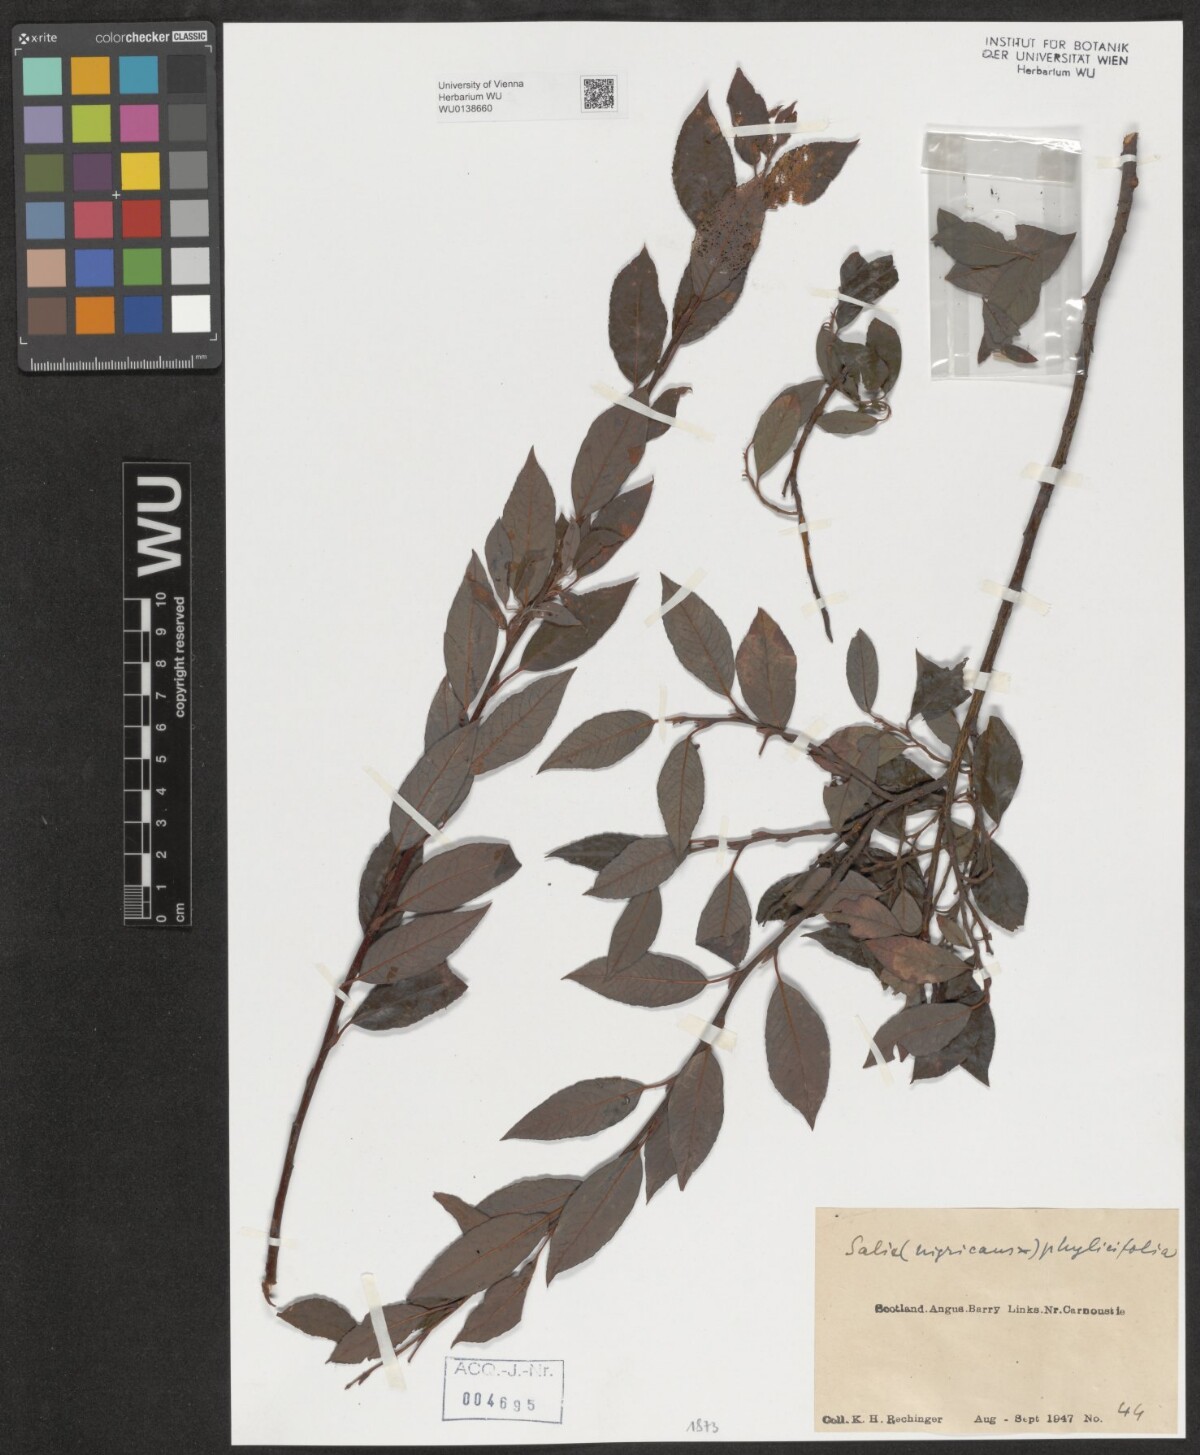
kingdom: Plantae
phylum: Tracheophyta
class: Magnoliopsida
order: Malpighiales
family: Salicaceae
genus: Salix
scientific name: Salix
